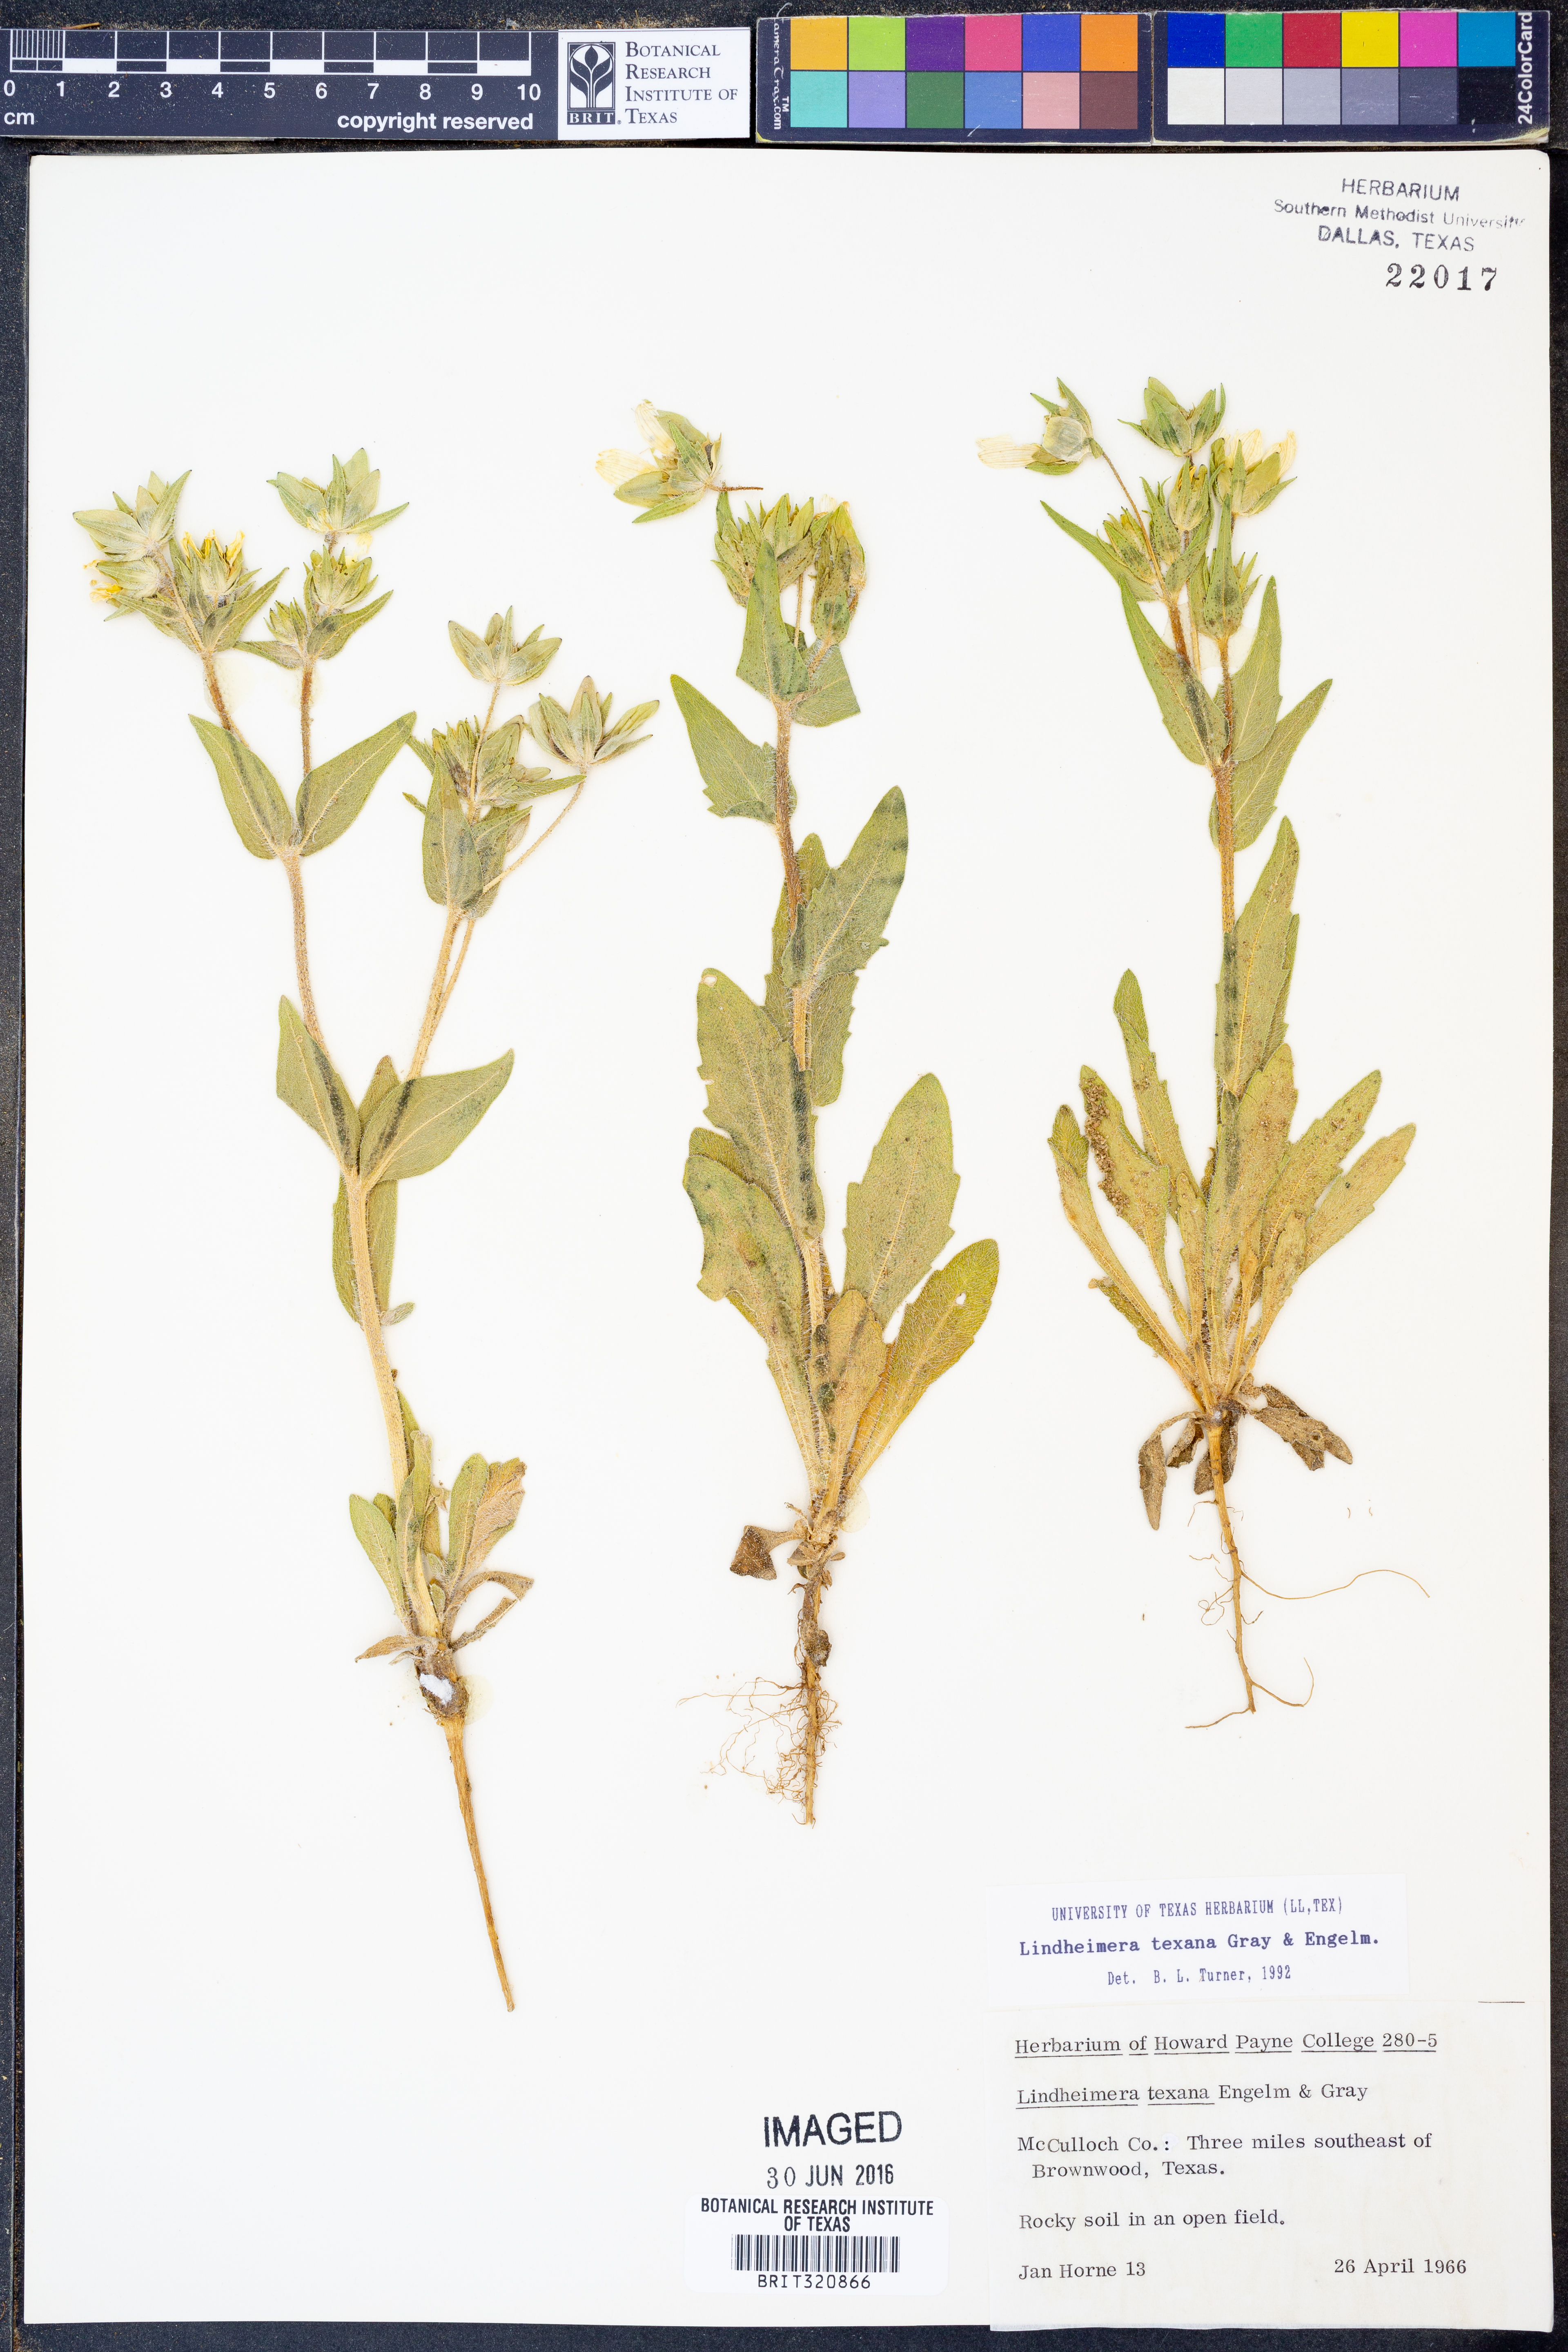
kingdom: Plantae
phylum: Tracheophyta
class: Magnoliopsida
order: Asterales
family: Asteraceae
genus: Lindheimera
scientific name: Lindheimera texana
